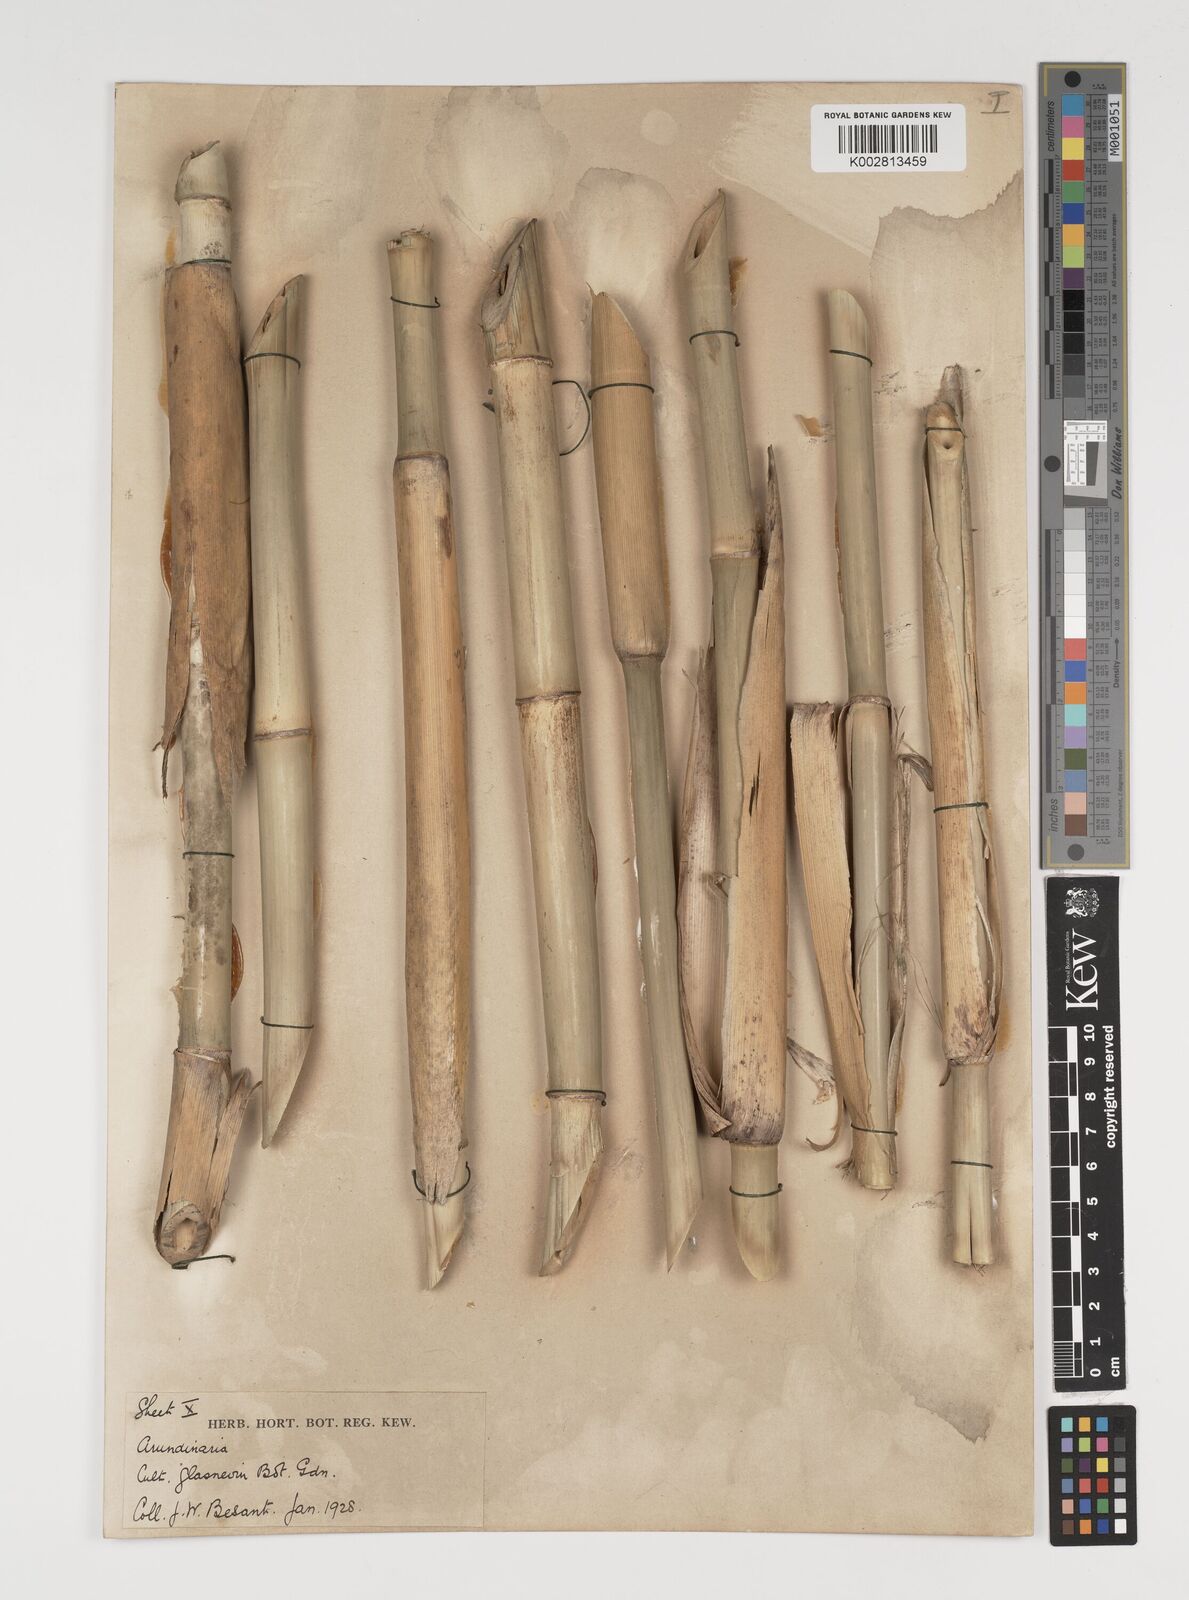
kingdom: Plantae
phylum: Tracheophyta
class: Liliopsida
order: Poales
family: Poaceae
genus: Thamnocalamus
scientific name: Thamnocalamus spathiflorus
